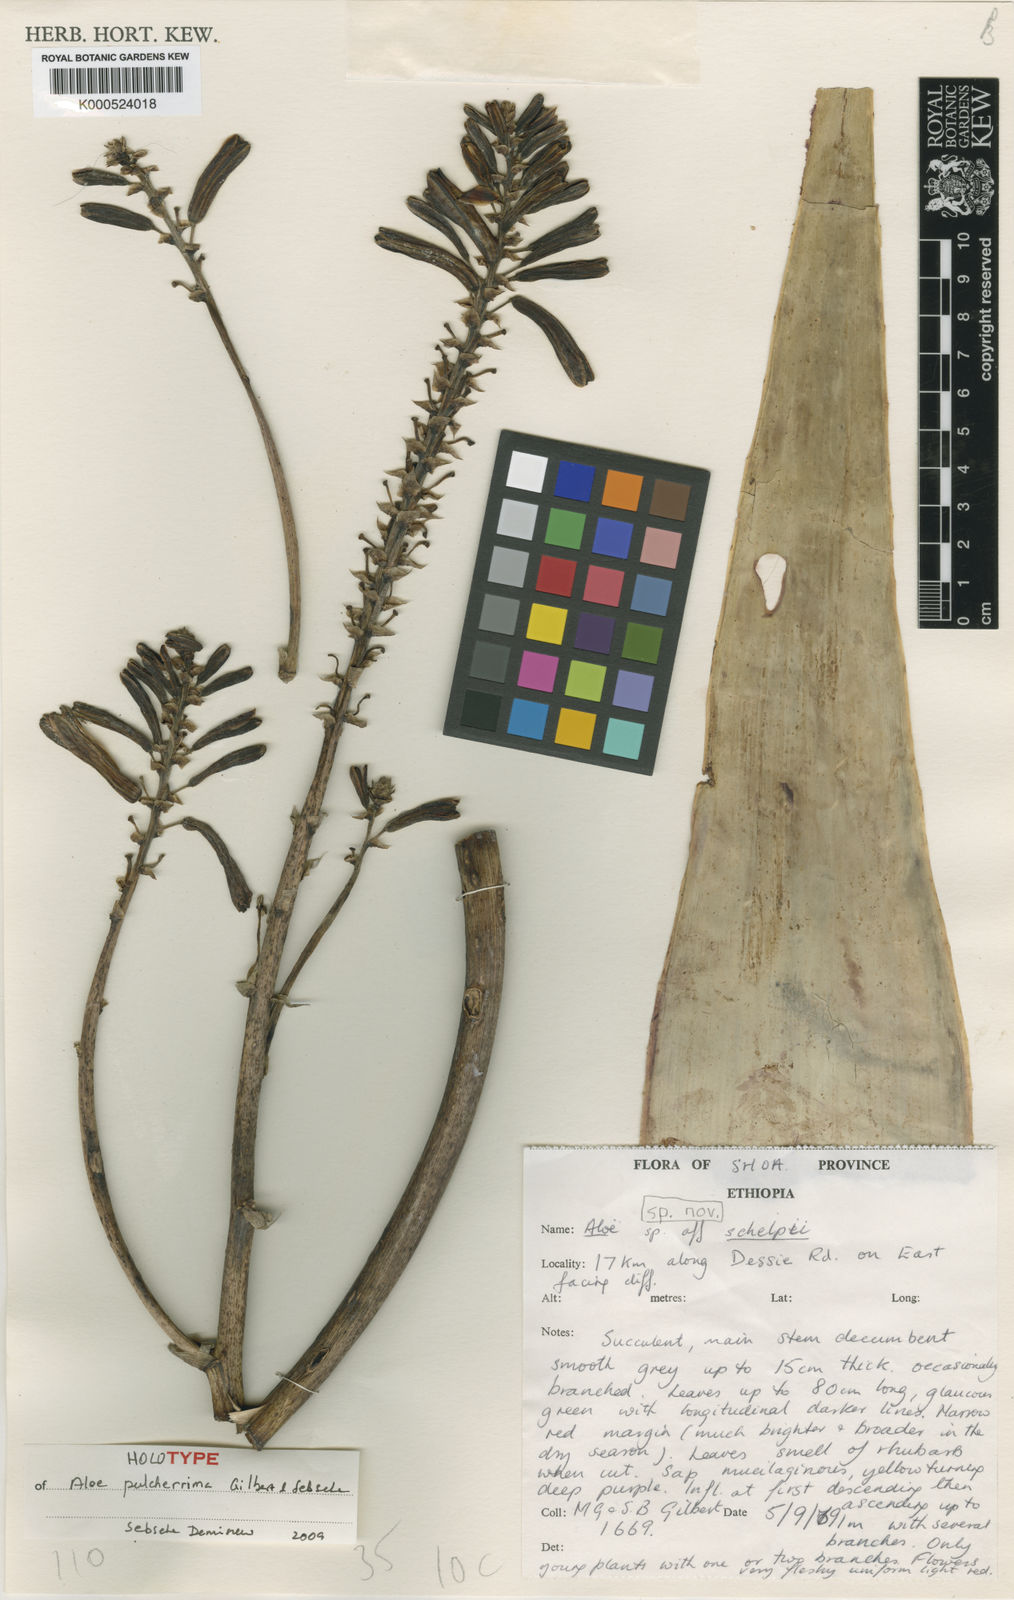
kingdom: Plantae
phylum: Tracheophyta
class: Liliopsida
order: Asparagales
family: Asphodelaceae
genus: Aloe
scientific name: Aloe pulcherrima
